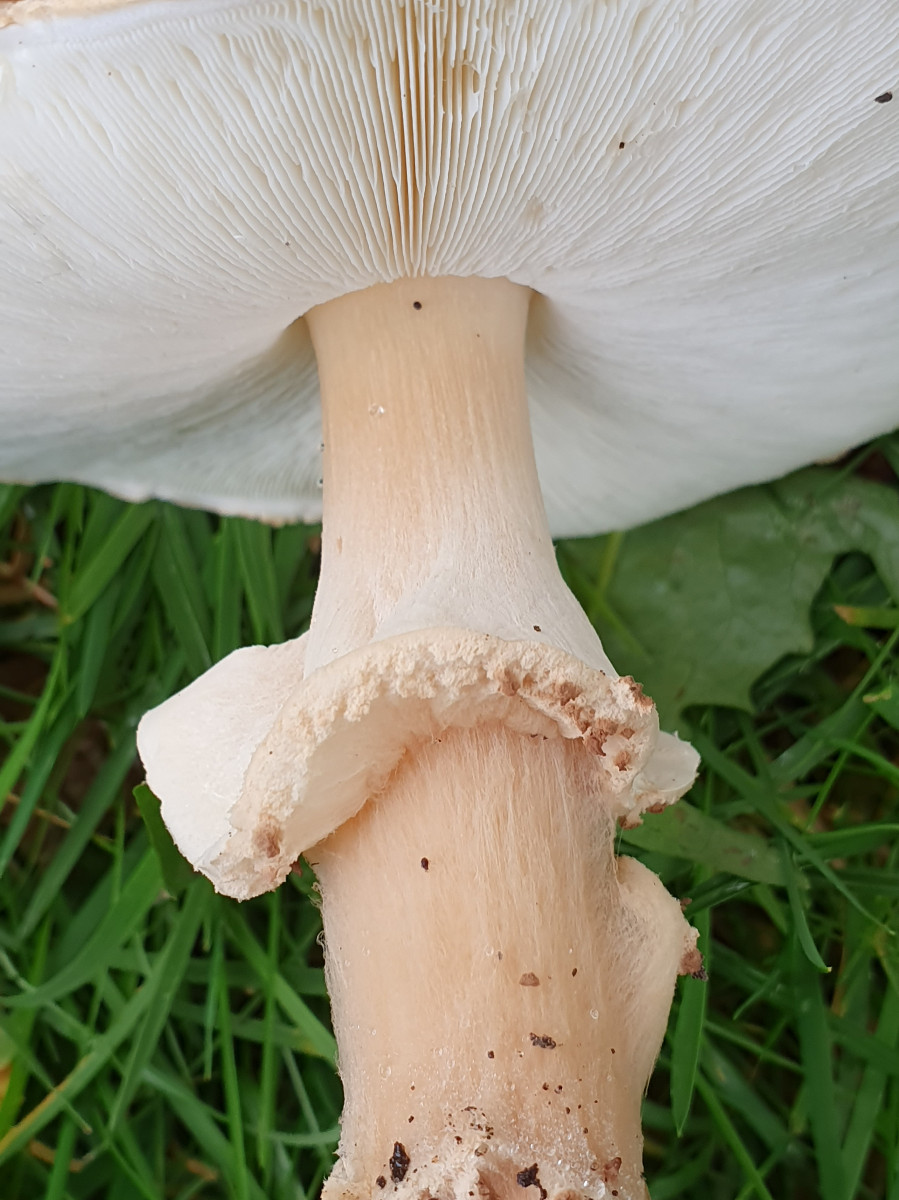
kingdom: Fungi
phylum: Basidiomycota
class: Agaricomycetes
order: Agaricales
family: Agaricaceae
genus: Echinoderma
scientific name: Echinoderma asperum
